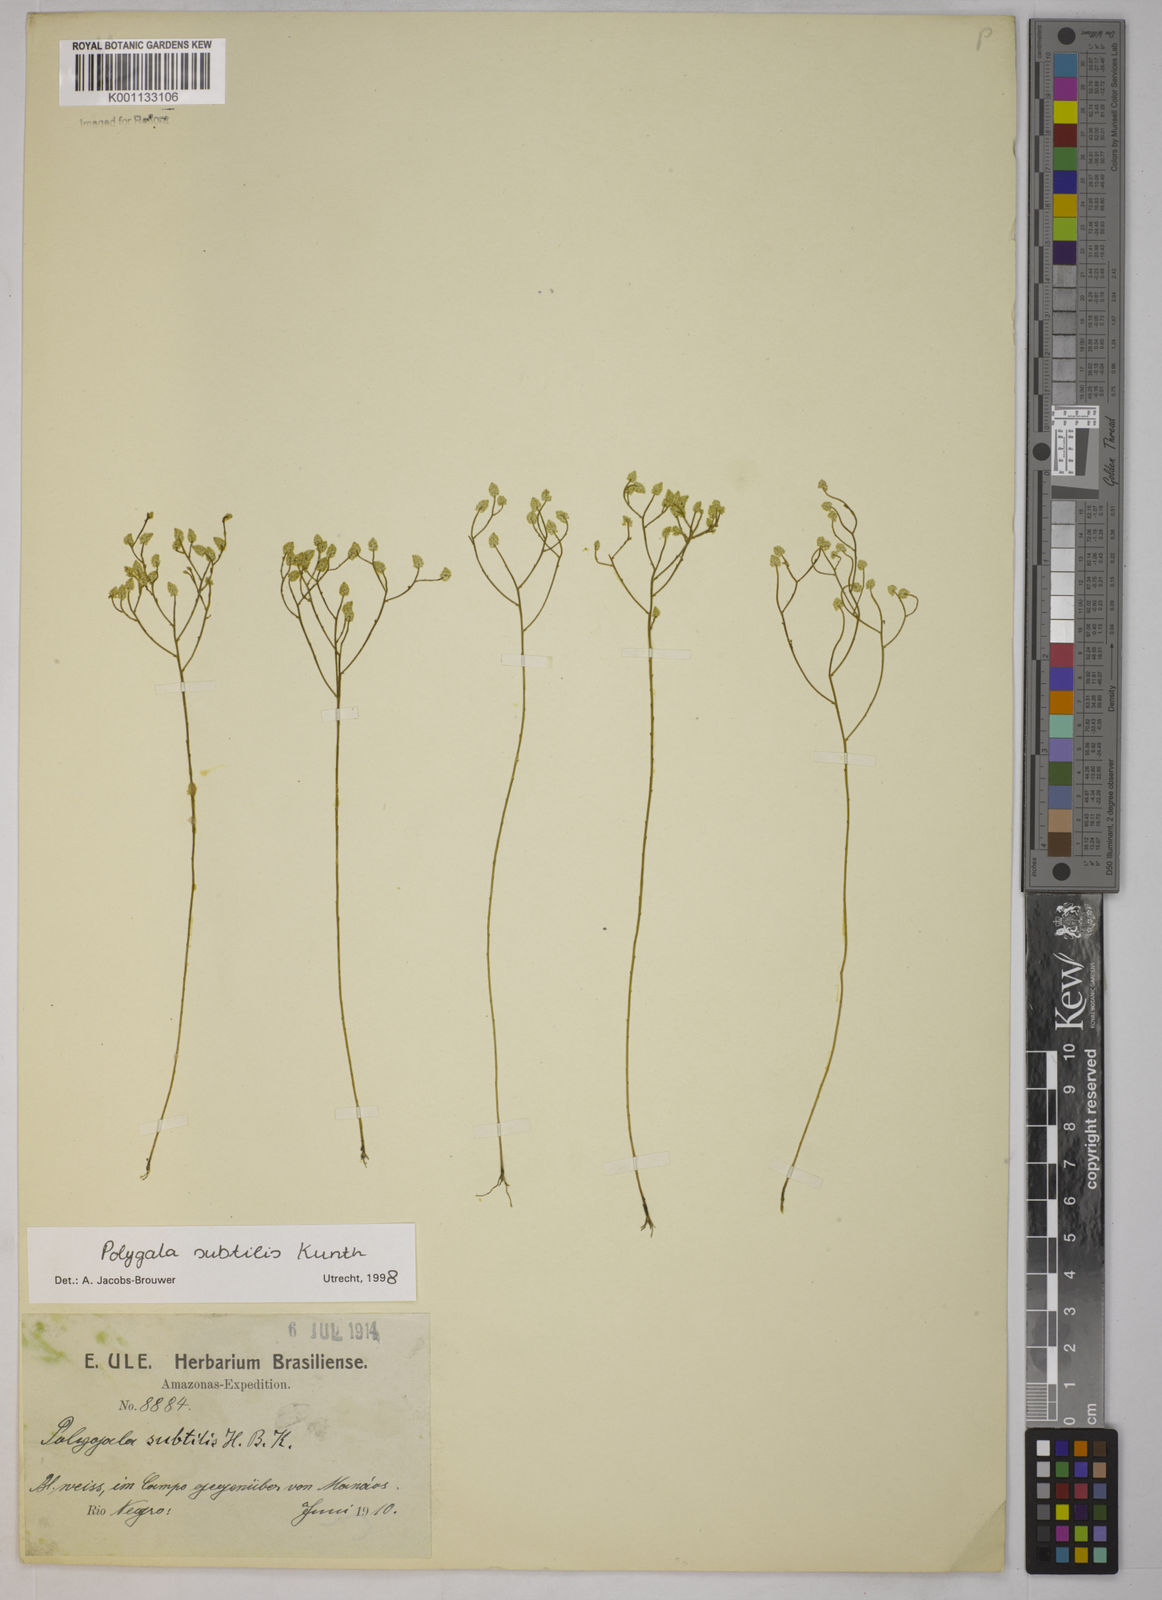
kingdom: Plantae
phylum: Tracheophyta
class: Magnoliopsida
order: Fabales
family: Polygalaceae
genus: Polygala
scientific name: Polygala subtilis
